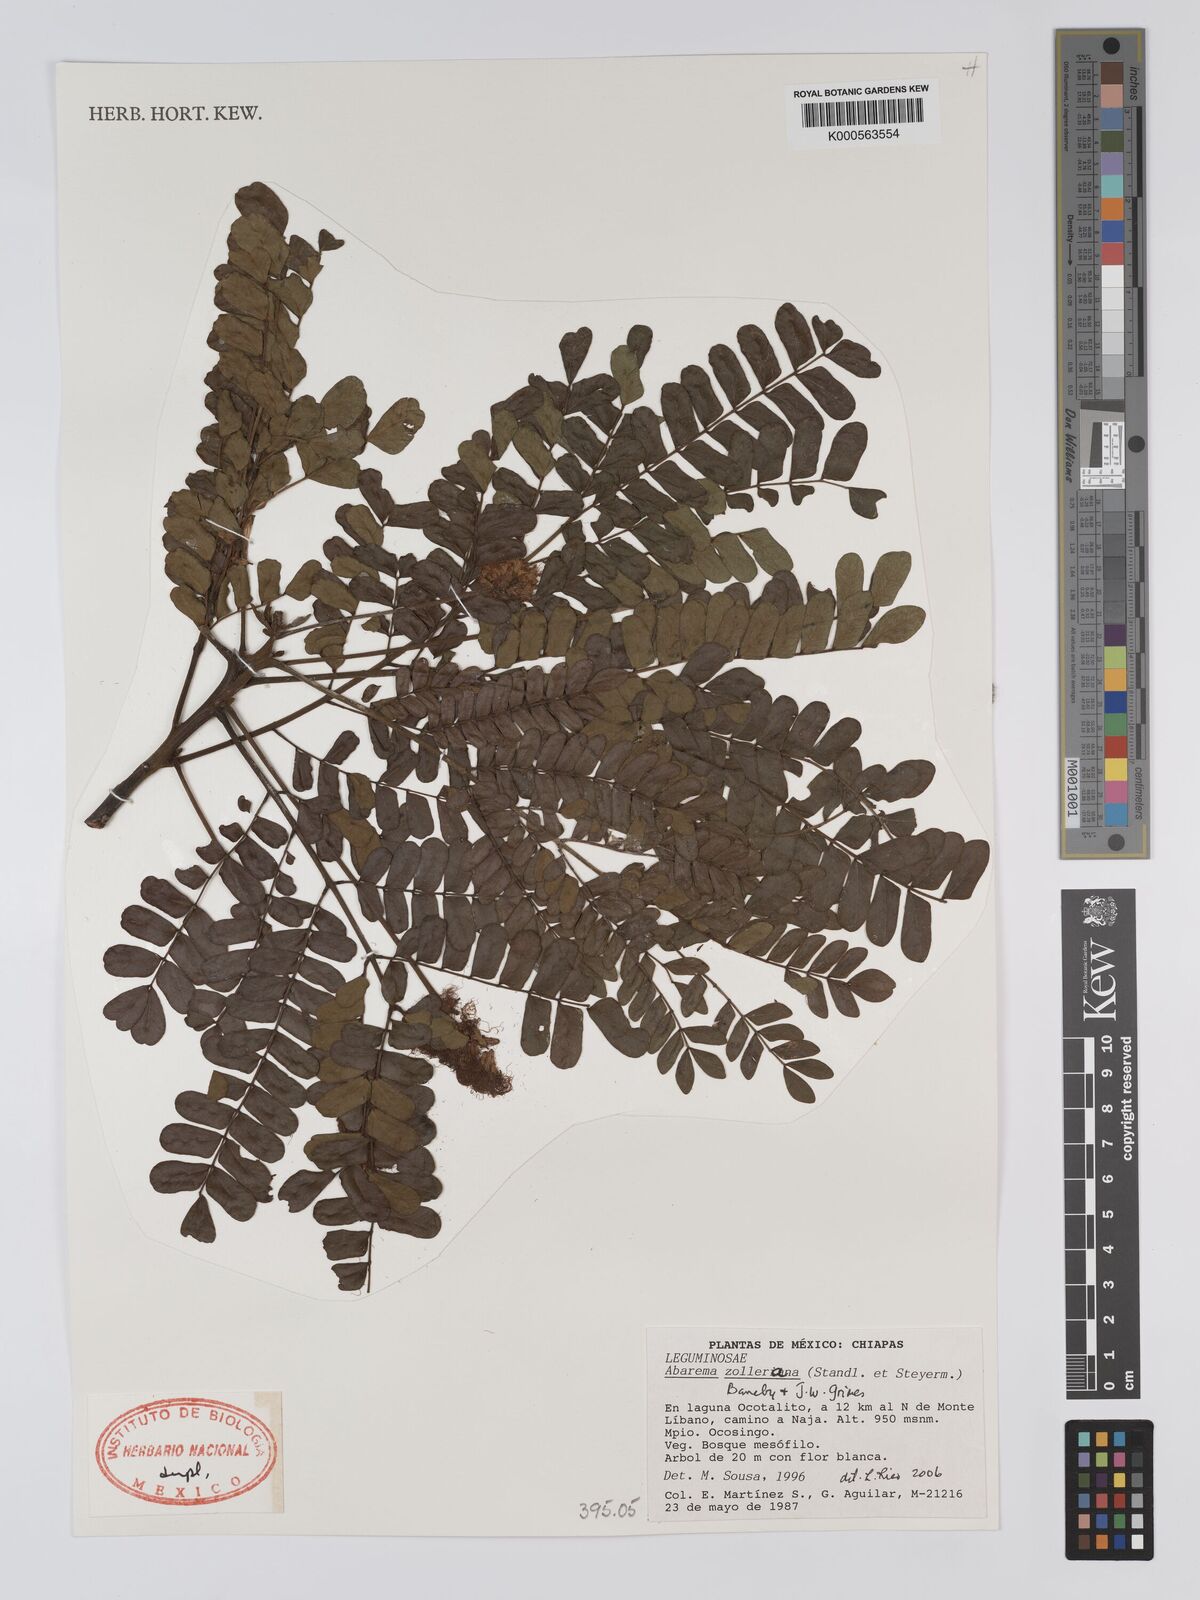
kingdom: Plantae
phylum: Tracheophyta
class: Magnoliopsida
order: Fabales
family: Fabaceae
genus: Abarema
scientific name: Abarema
